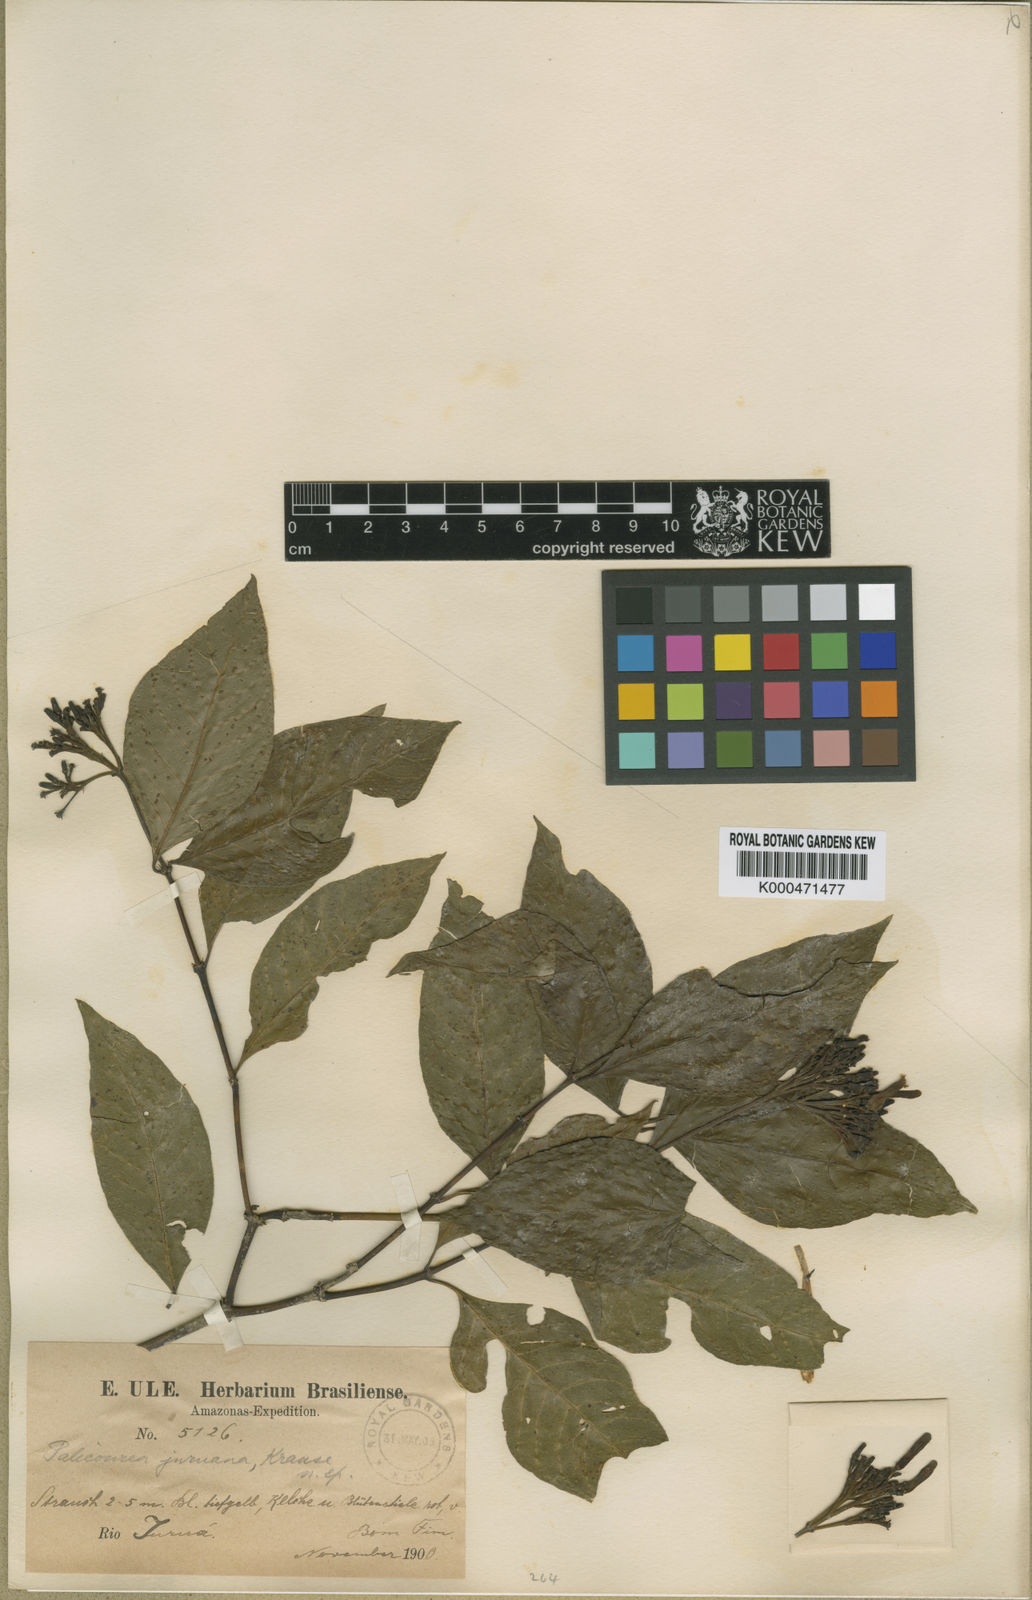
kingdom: Plantae
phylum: Tracheophyta
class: Magnoliopsida
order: Gentianales
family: Rubiaceae
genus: Palicourea
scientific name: Palicourea juruana
